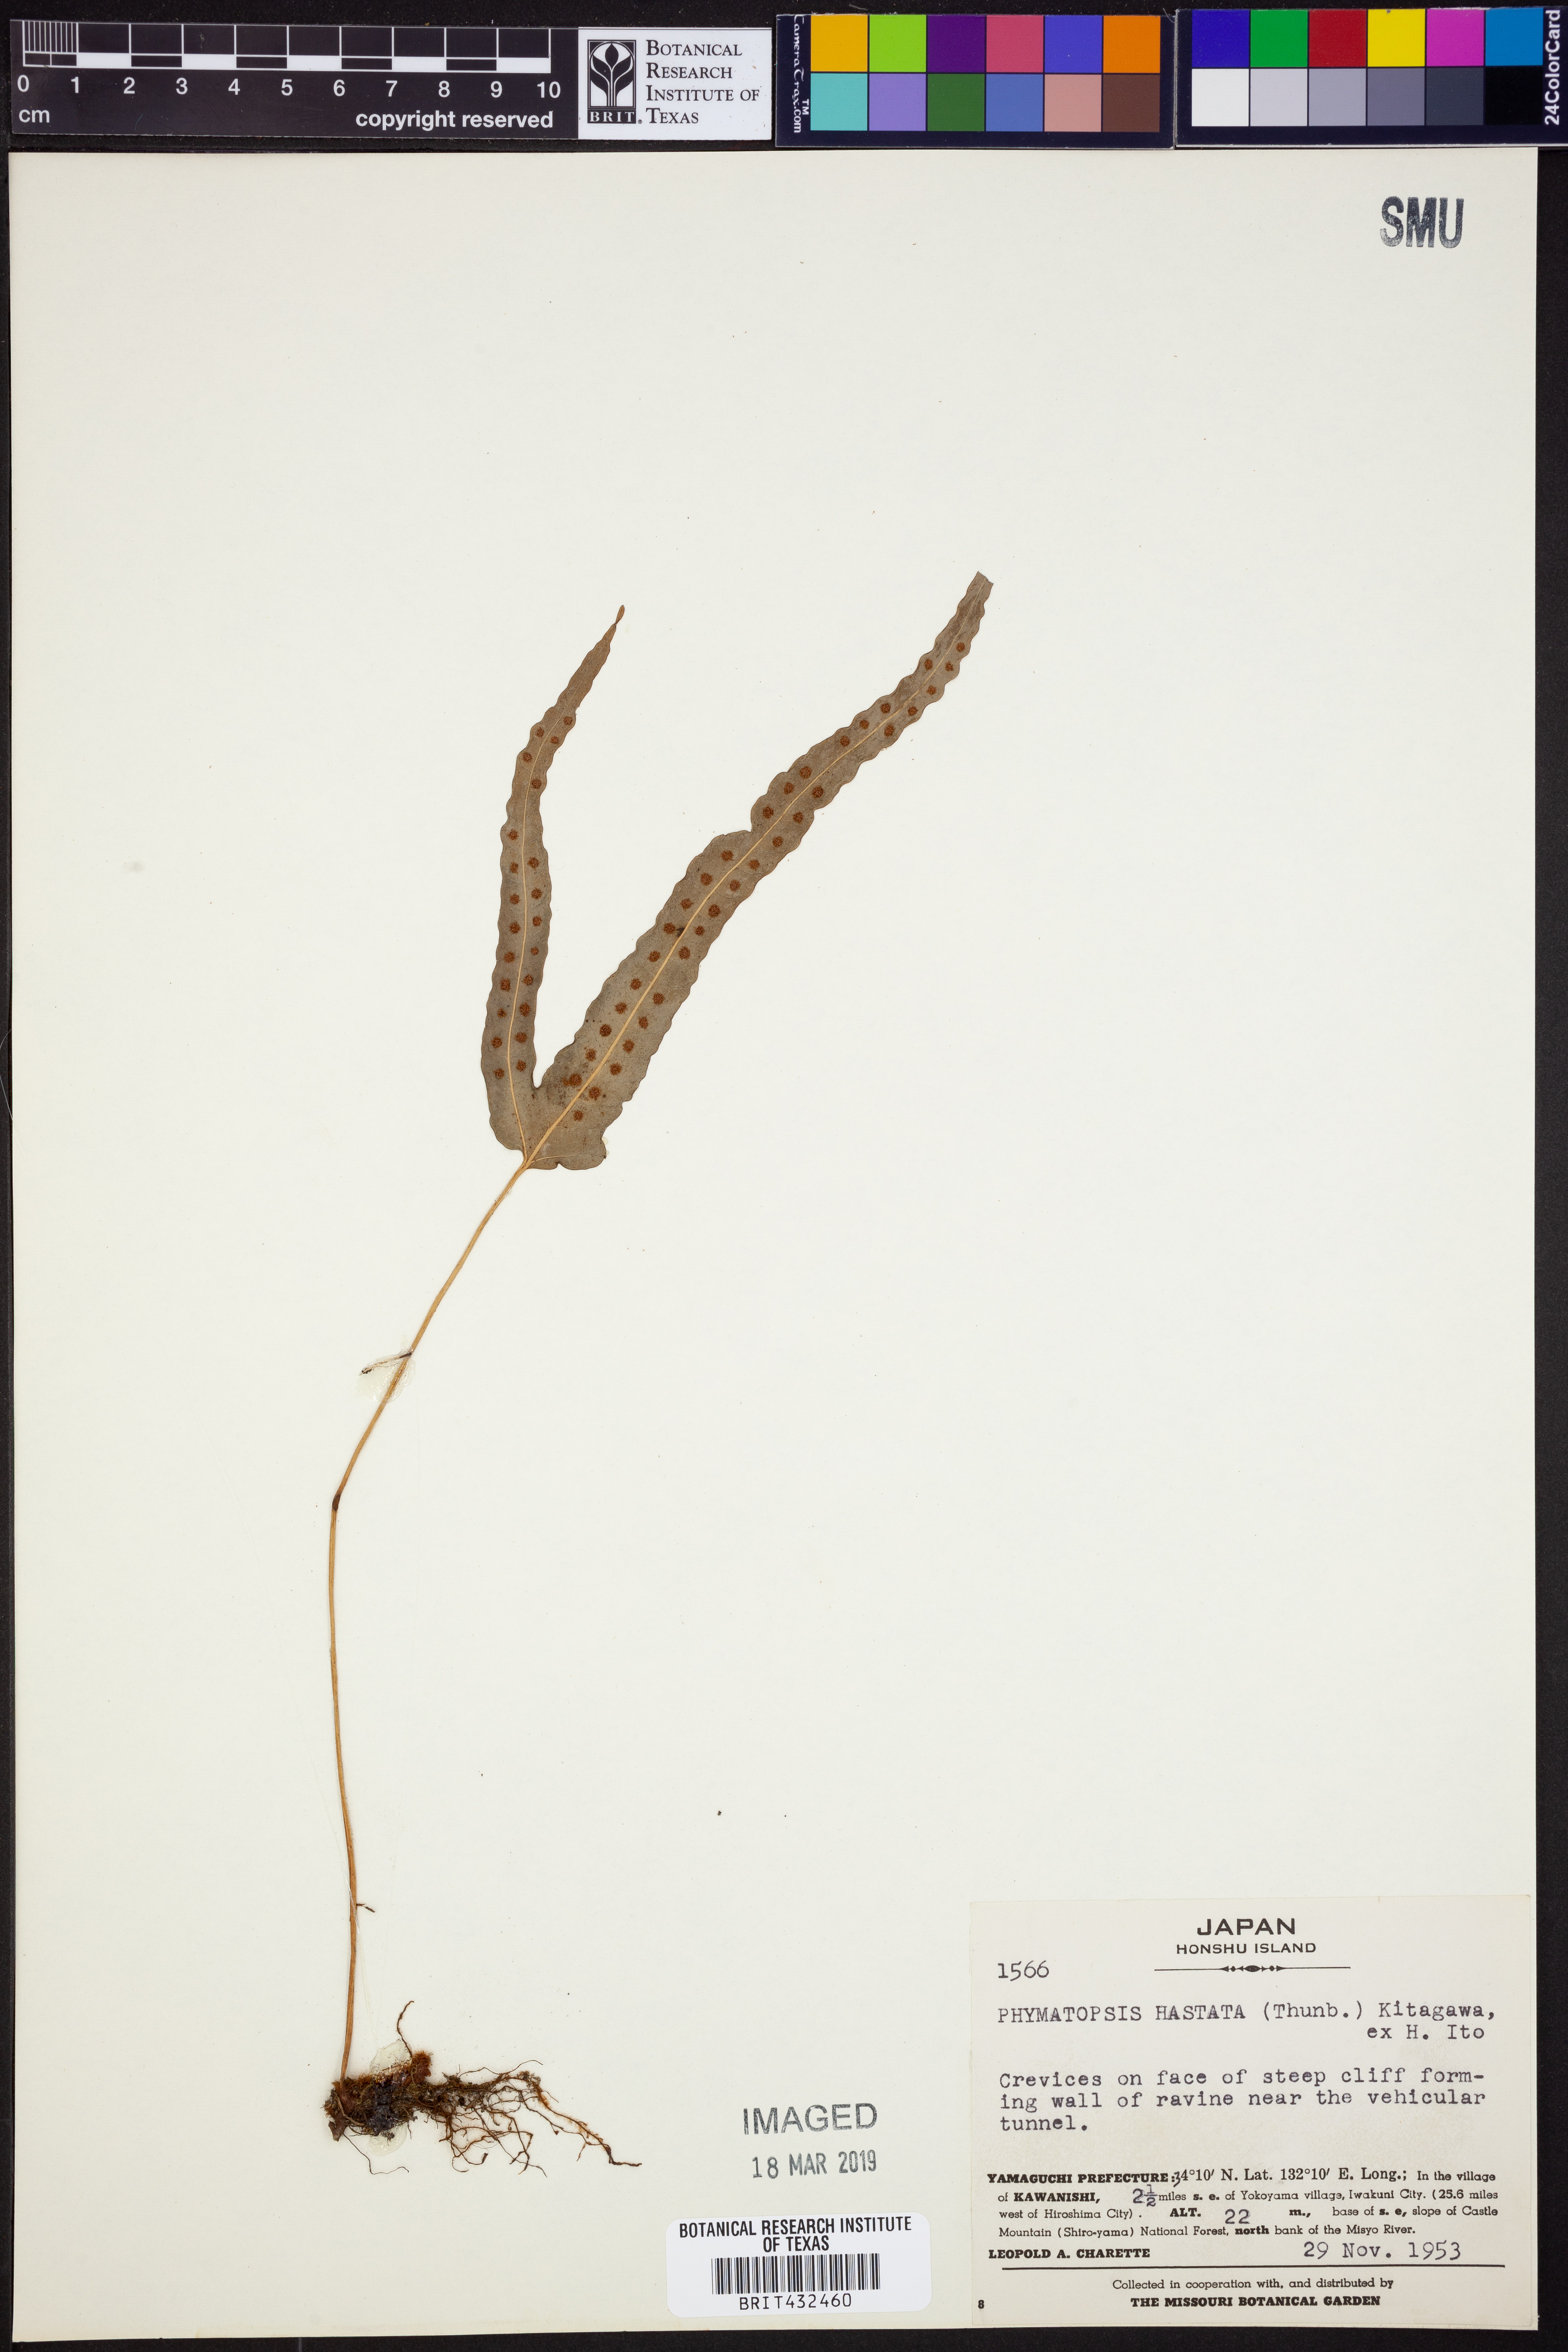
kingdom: Plantae
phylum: Tracheophyta
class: Polypodiopsida
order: Polypodiales
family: Polypodiaceae
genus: Selliguea
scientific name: Selliguea hastata
